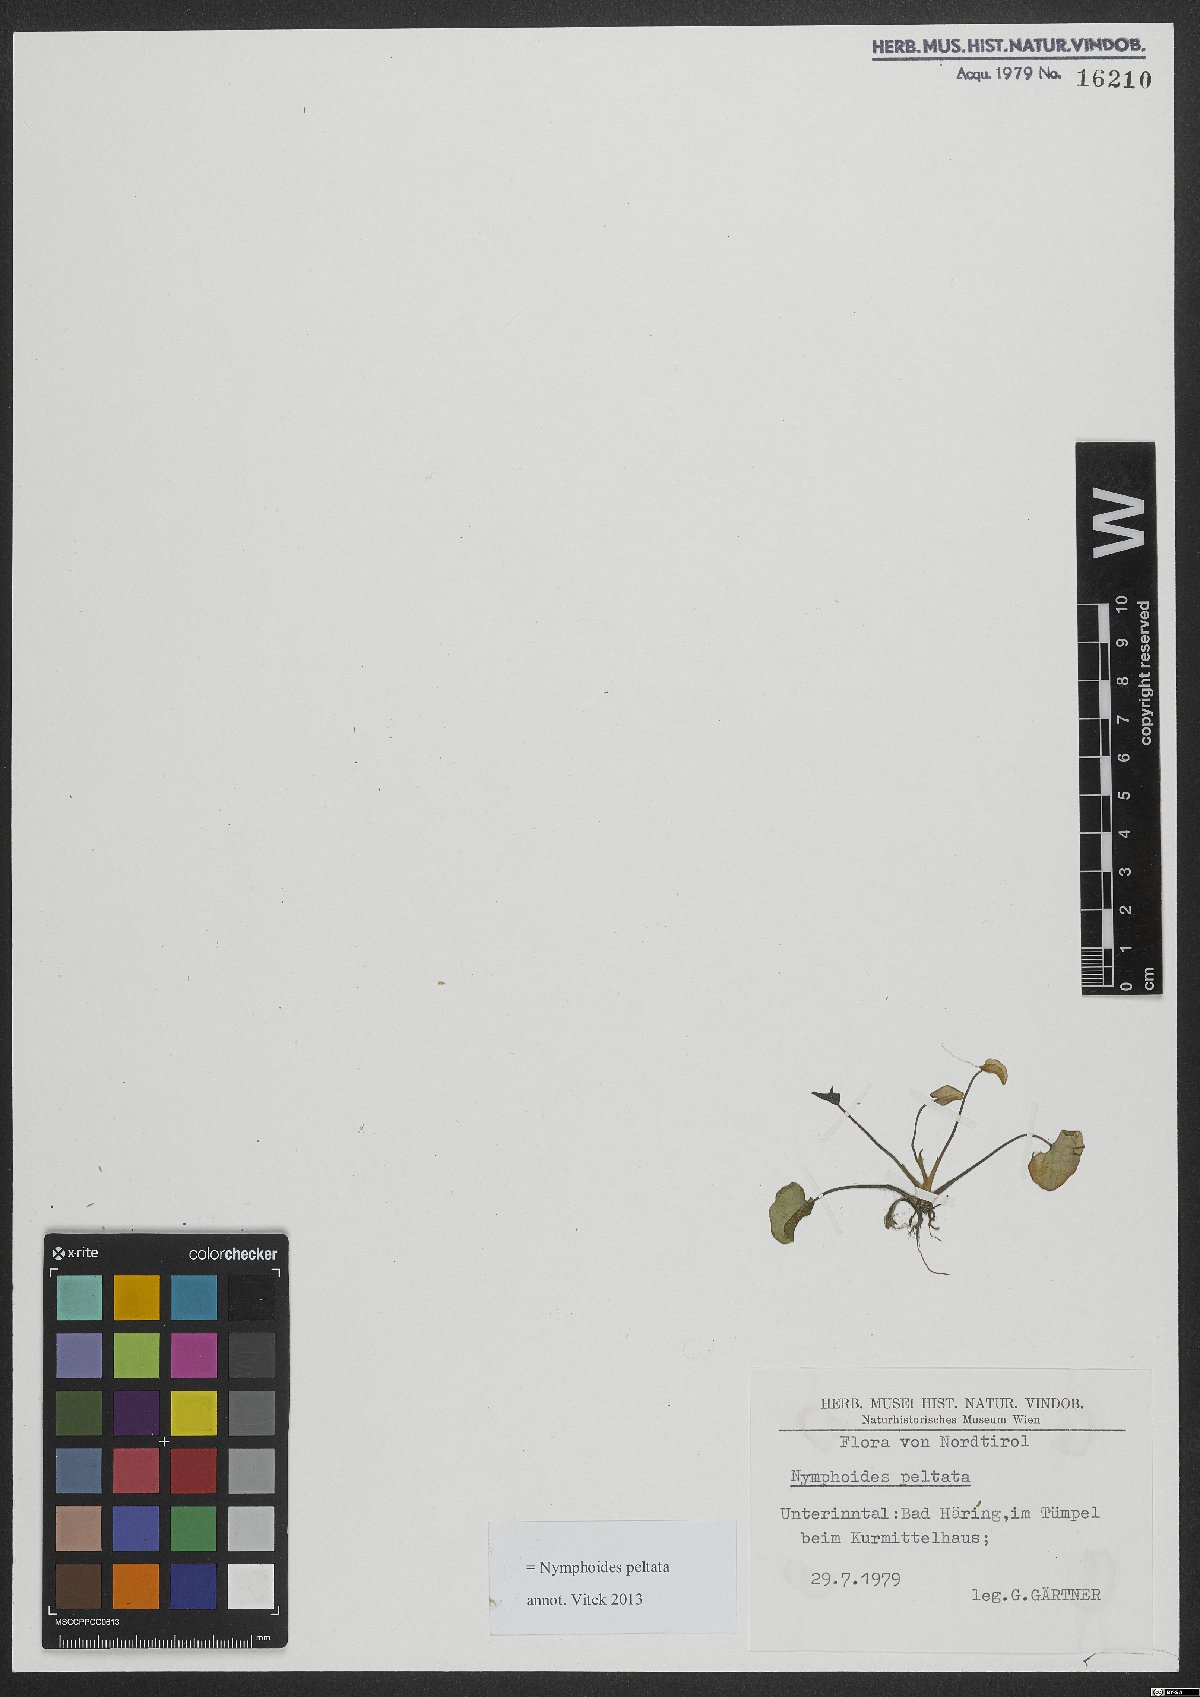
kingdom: Plantae
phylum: Tracheophyta
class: Magnoliopsida
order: Asterales
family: Menyanthaceae
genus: Nymphoides
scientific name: Nymphoides peltata
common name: Fringed water-lily
